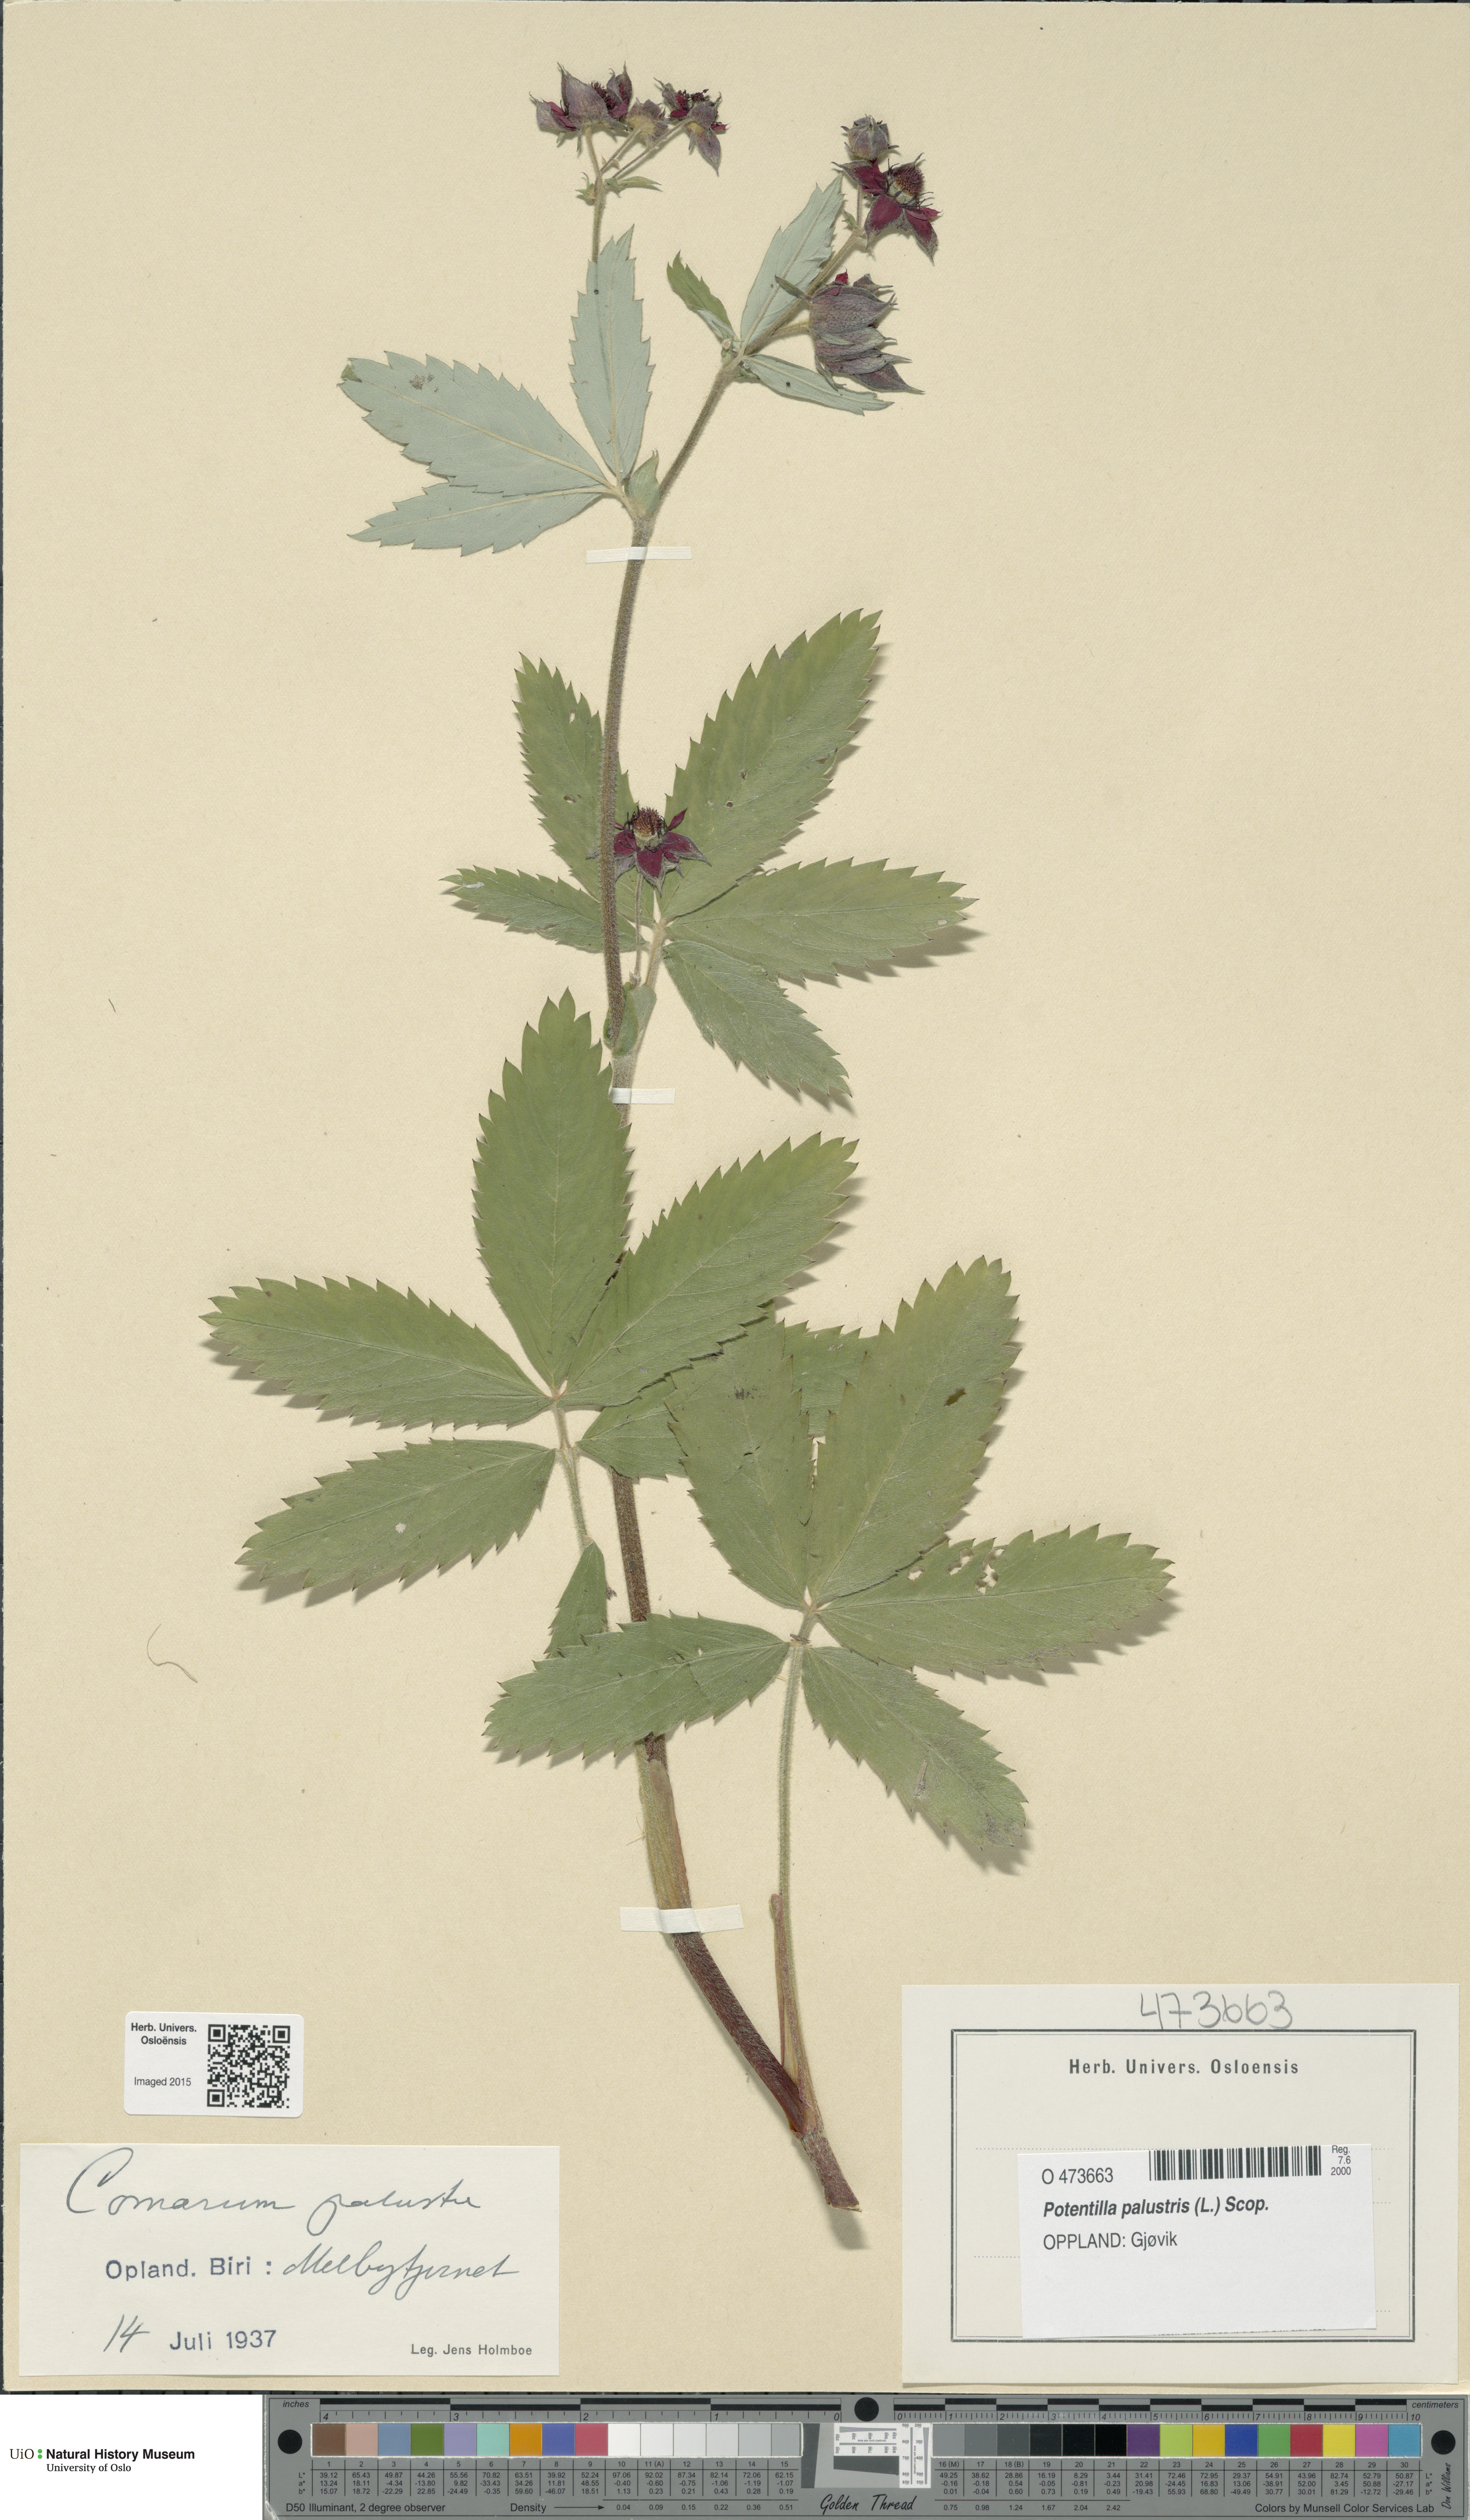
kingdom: Plantae
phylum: Tracheophyta
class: Magnoliopsida
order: Rosales
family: Rosaceae
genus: Comarum
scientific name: Comarum palustre
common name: Marsh cinquefoil
